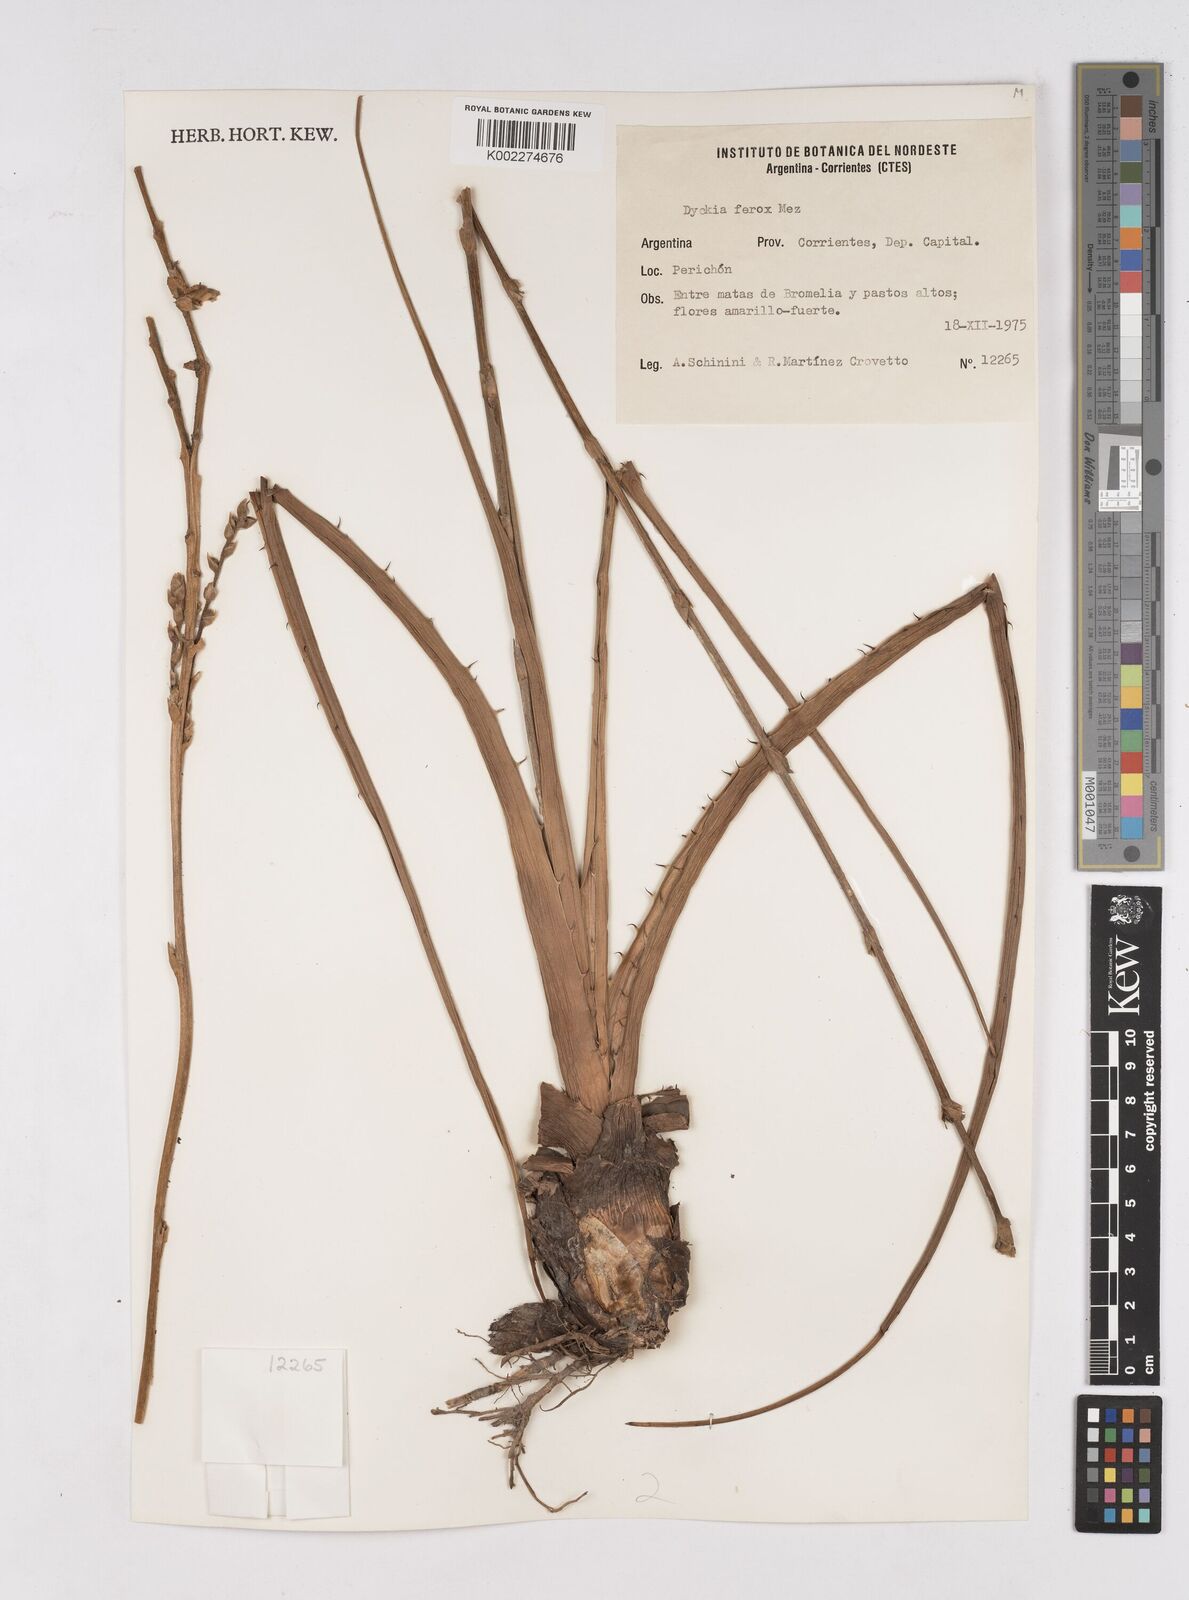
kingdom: Plantae
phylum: Tracheophyta
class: Liliopsida
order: Poales
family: Bromeliaceae
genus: Dyckia
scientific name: Dyckia ferox
